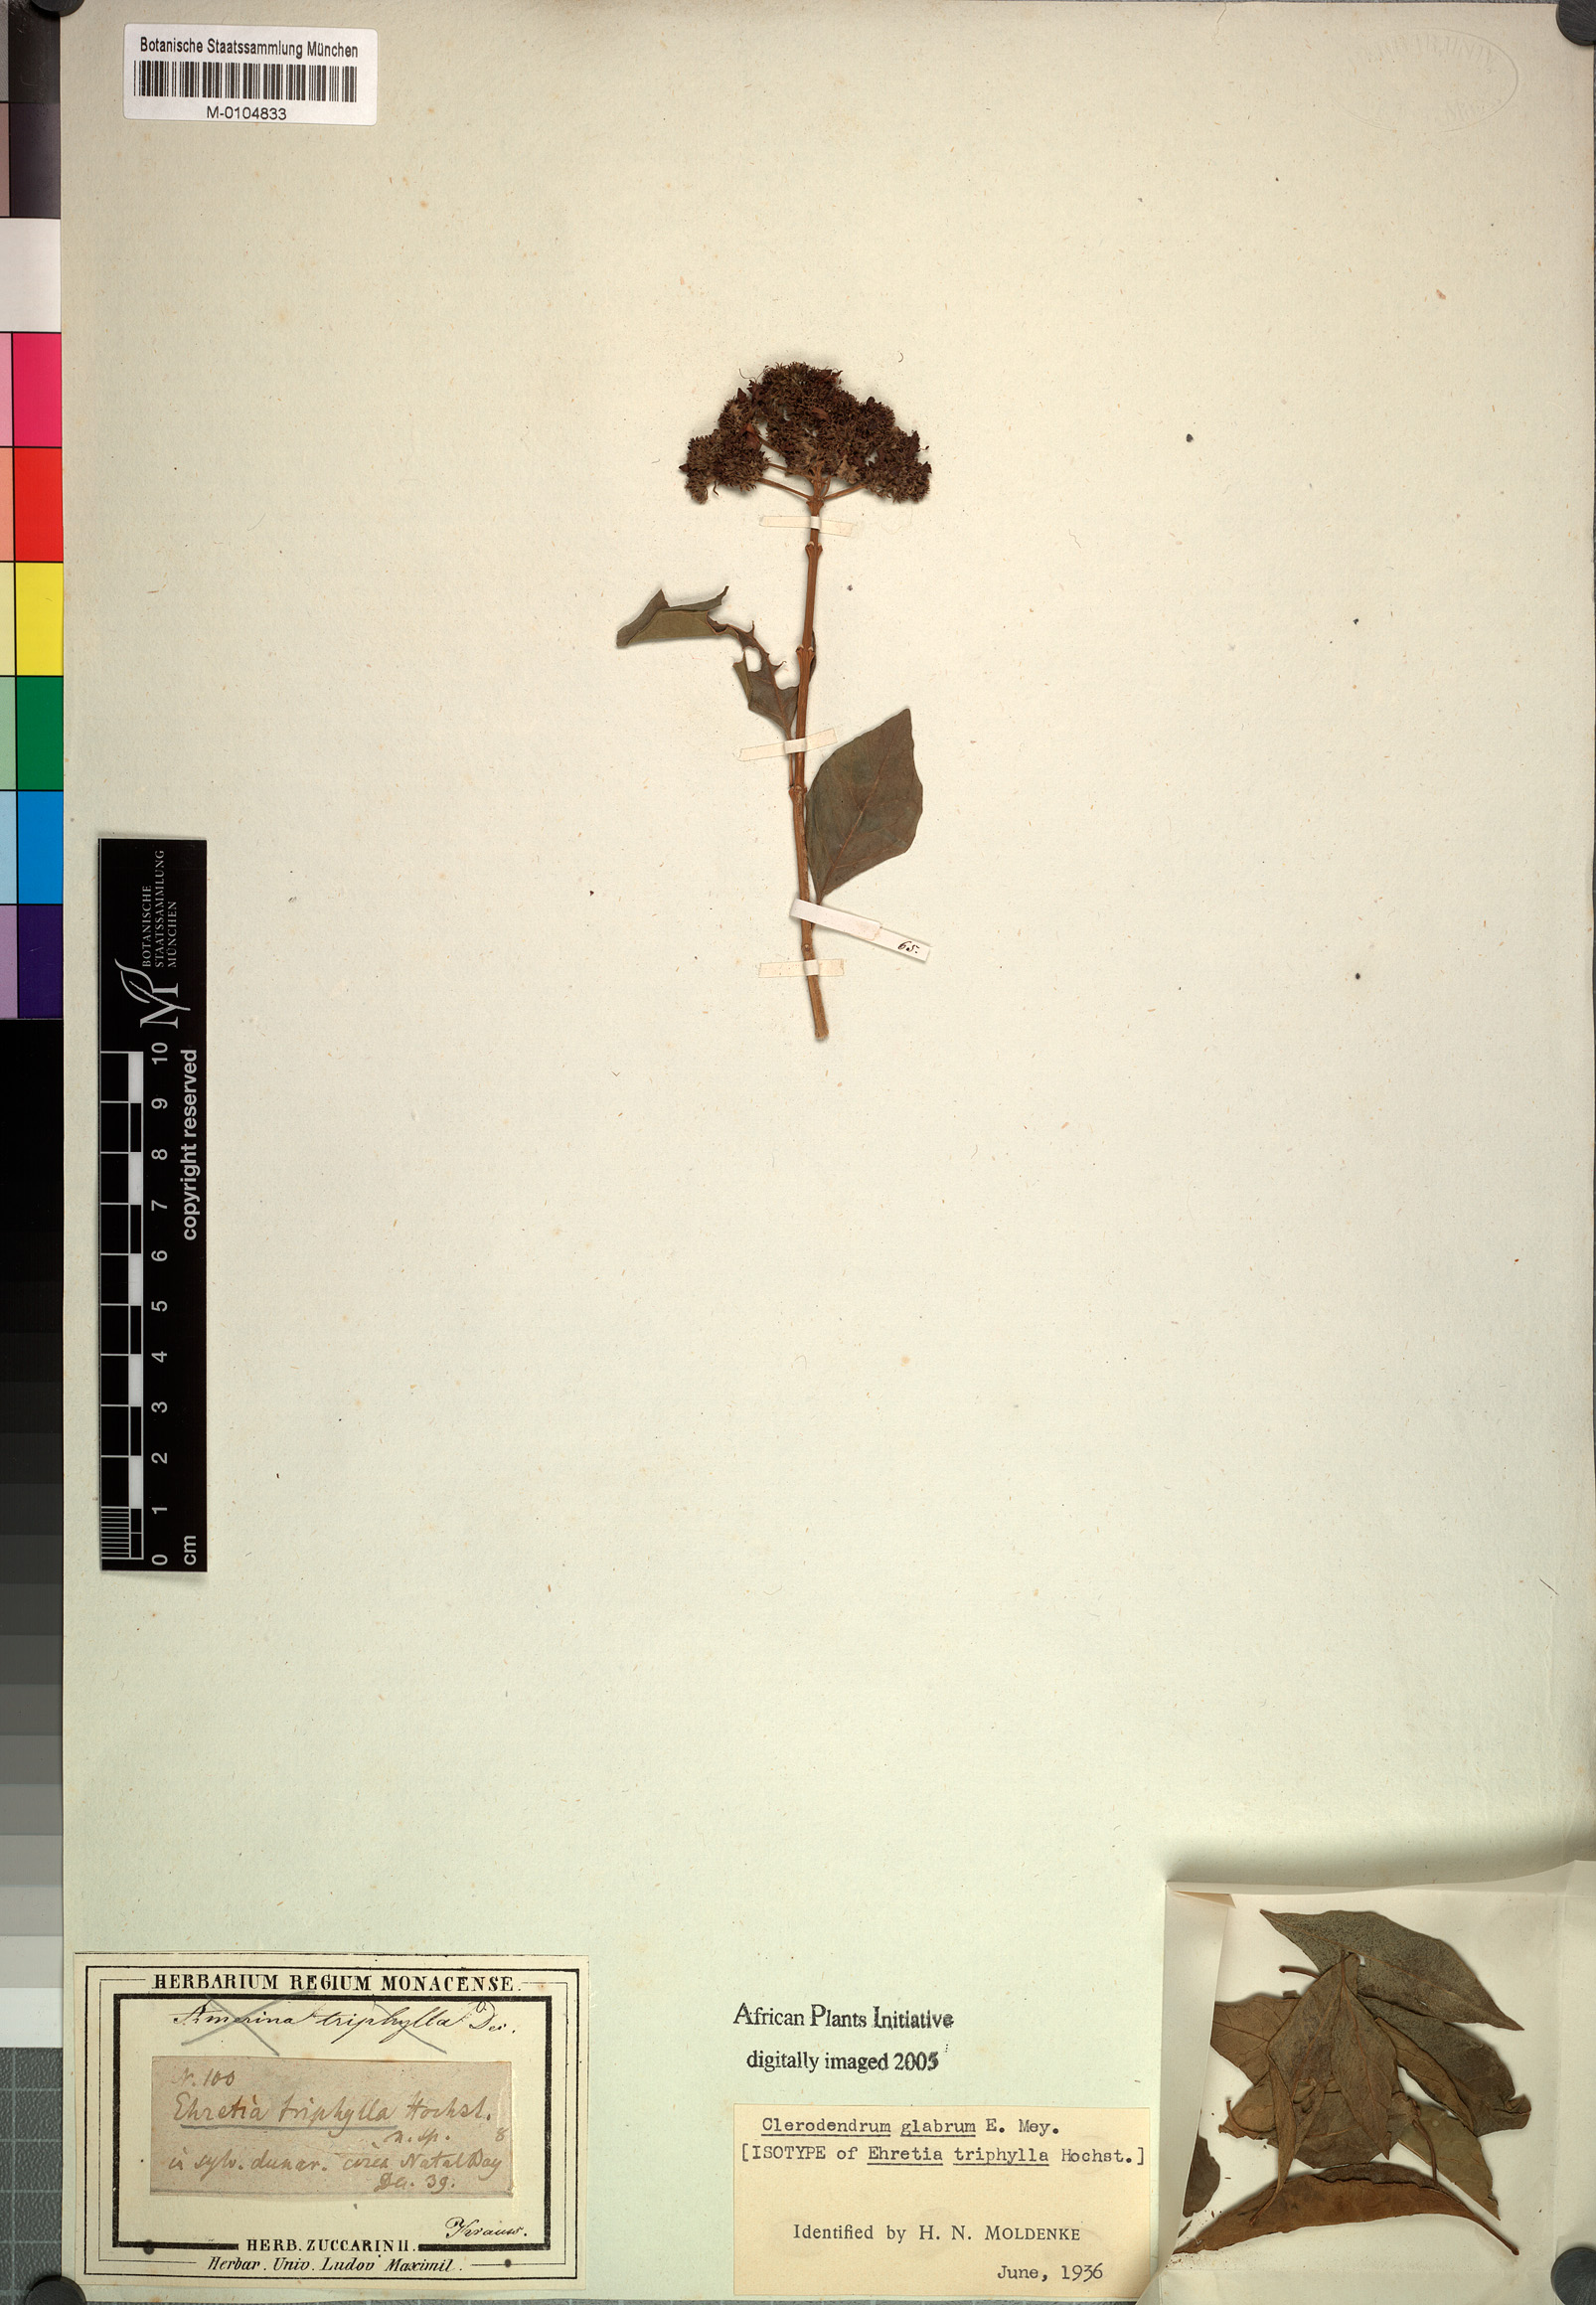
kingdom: Plantae
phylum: Tracheophyta
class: Magnoliopsida
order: Lamiales
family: Lamiaceae
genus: Volkameria
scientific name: Volkameria glabra
